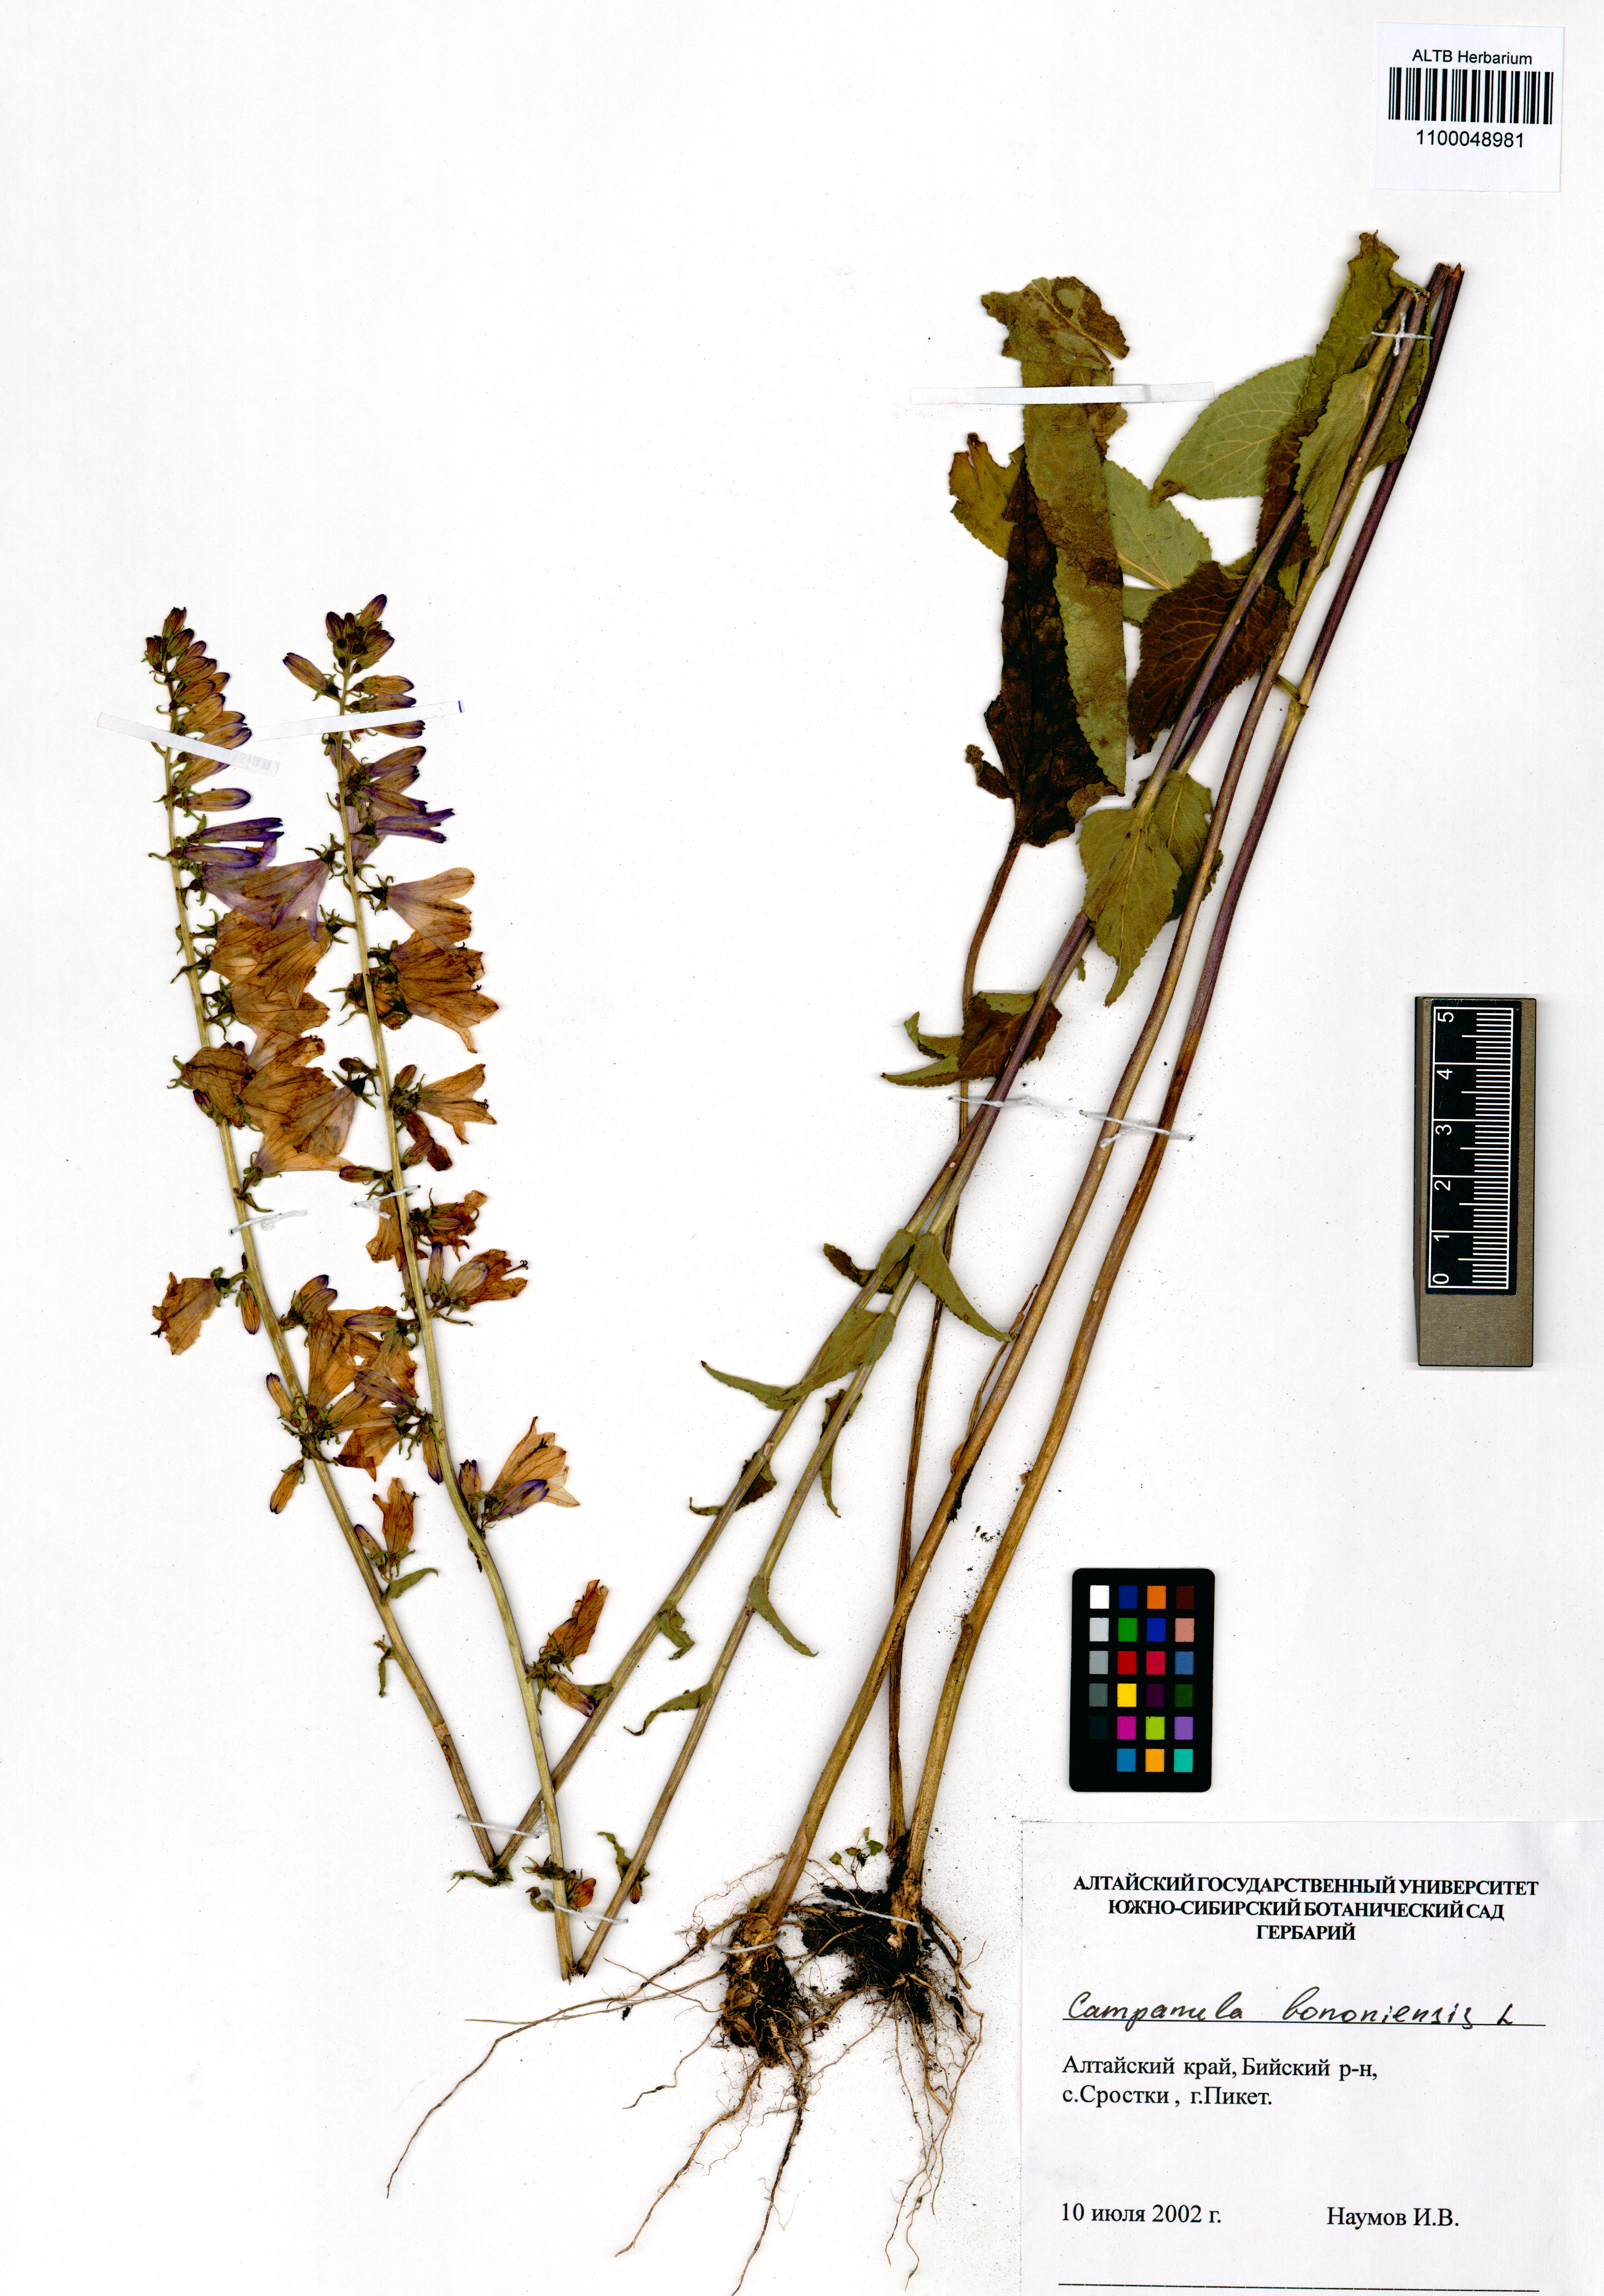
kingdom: Plantae
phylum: Tracheophyta
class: Magnoliopsida
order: Asterales
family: Campanulaceae
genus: Campanula
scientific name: Campanula bononiensis
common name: Pale bellflower
